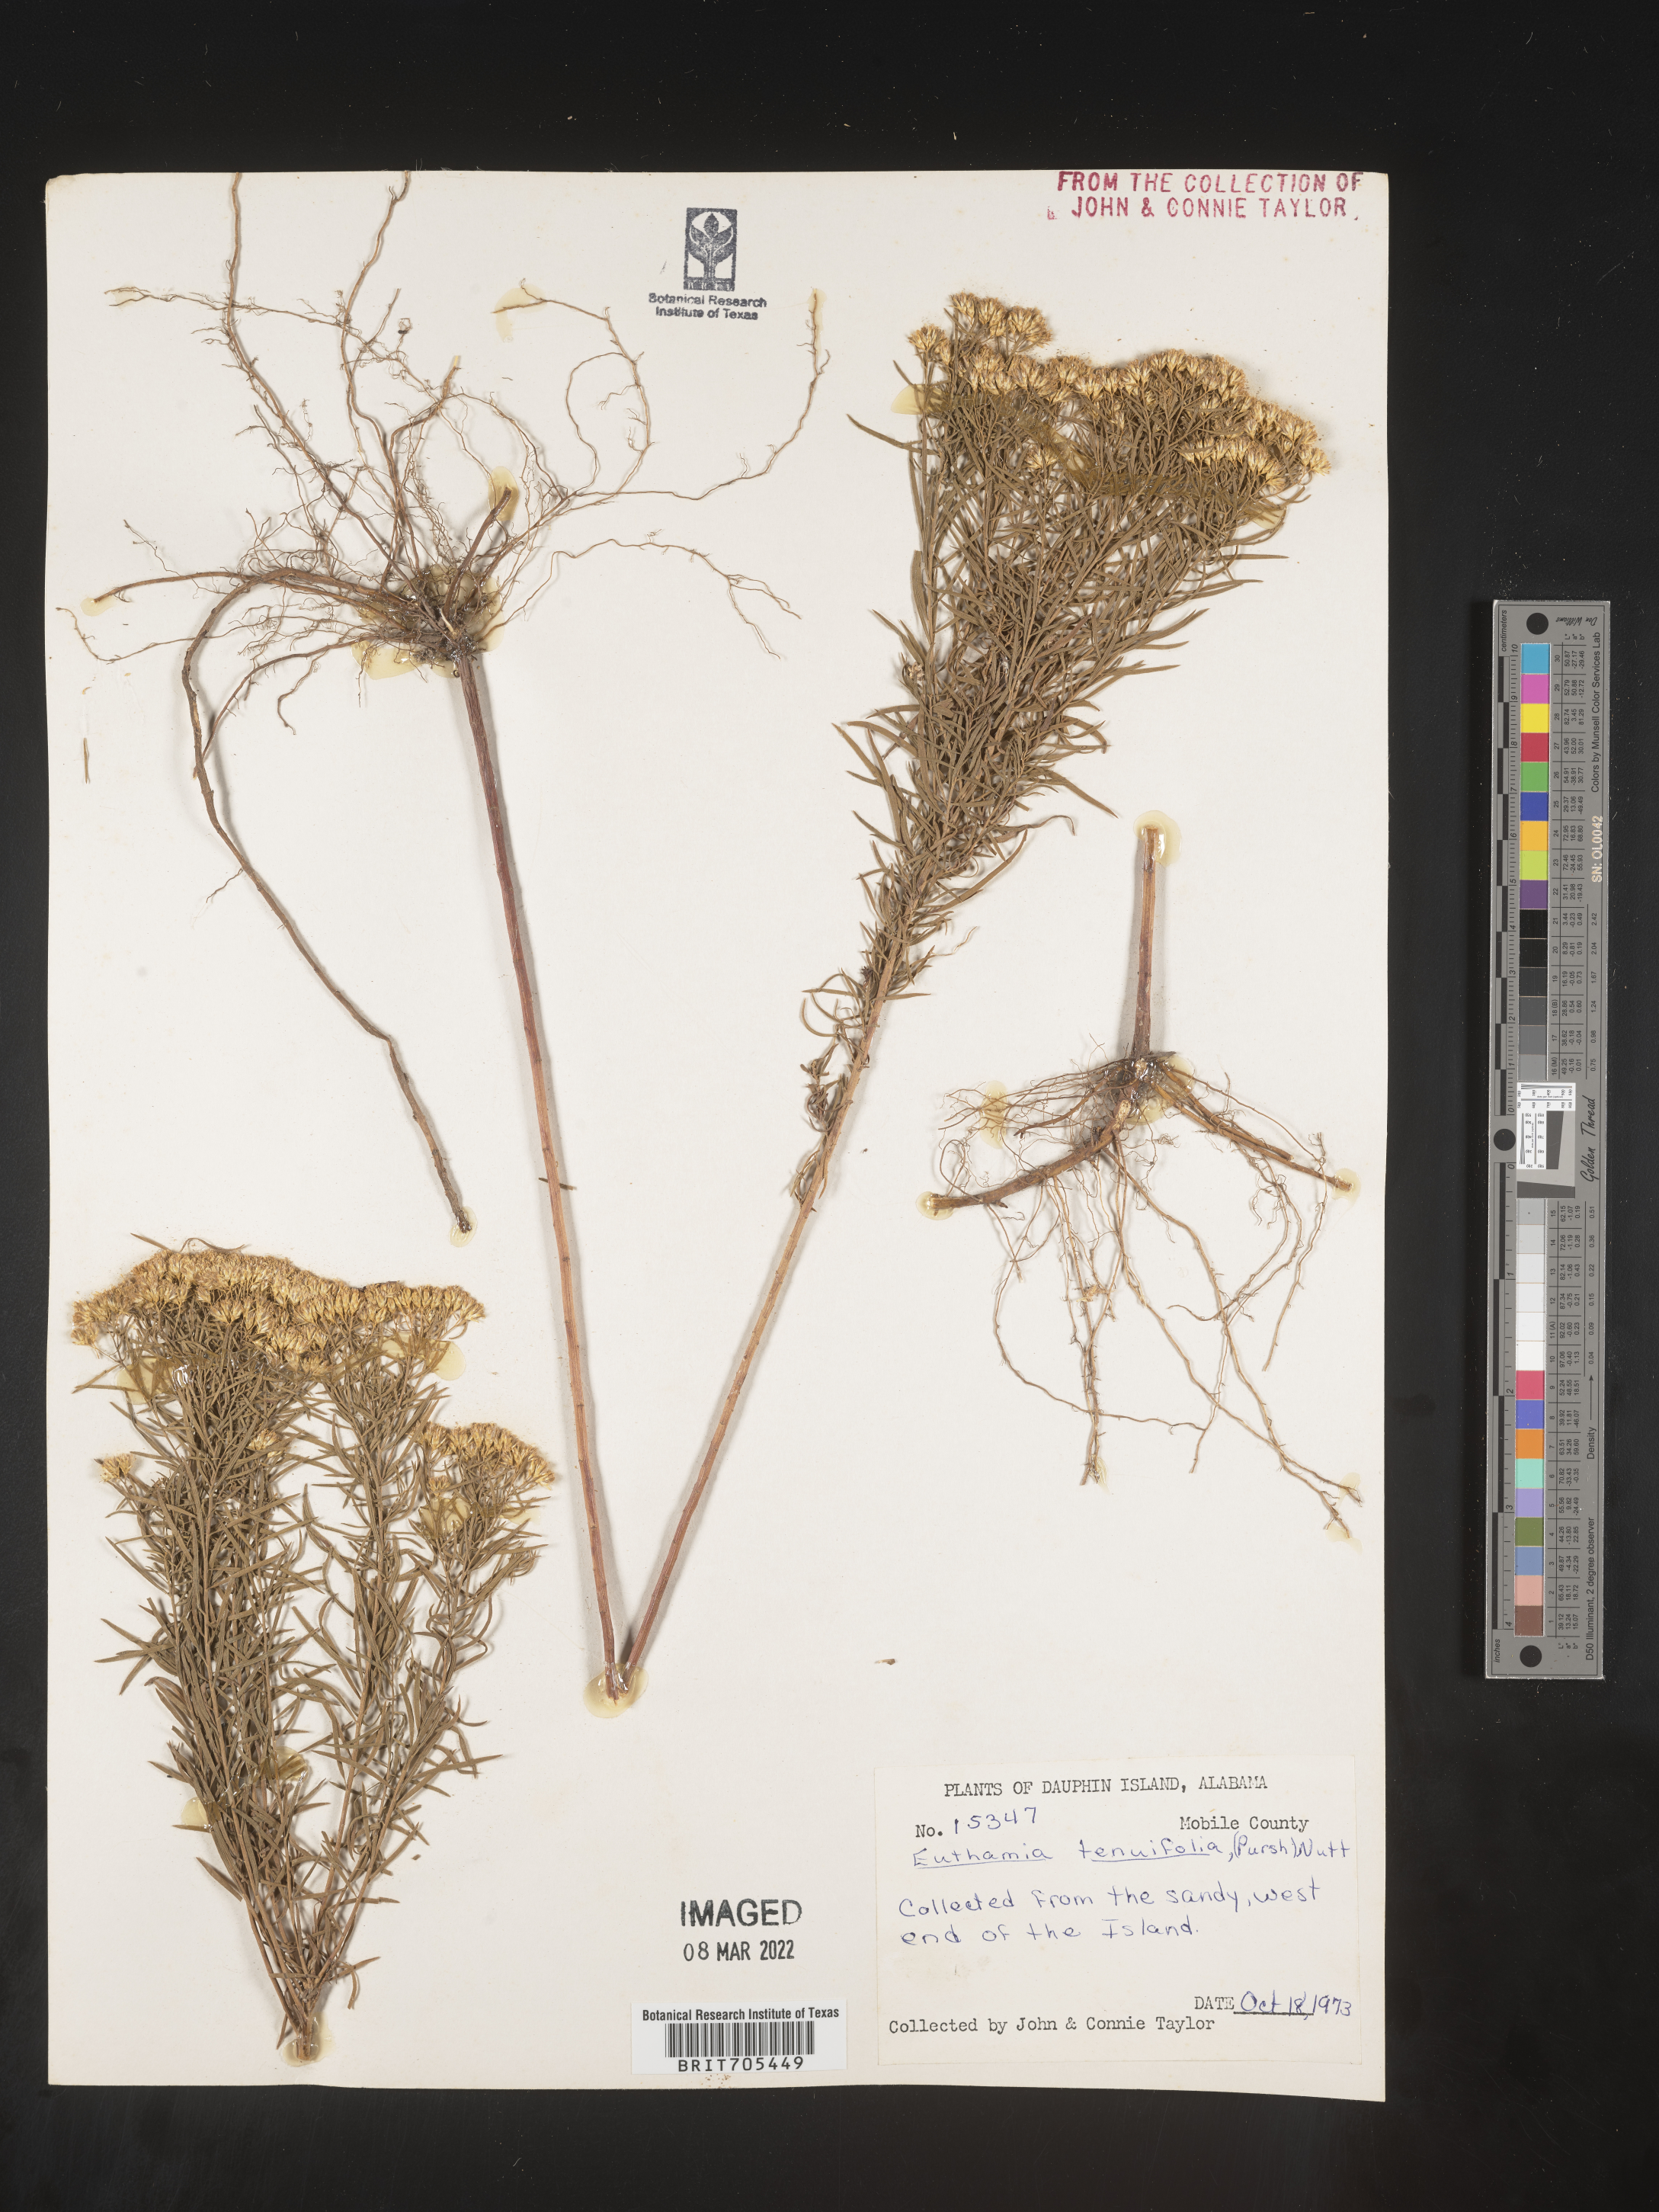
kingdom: Plantae
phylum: Tracheophyta
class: Magnoliopsida
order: Asterales
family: Asteraceae
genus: Euthamia
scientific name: Euthamia scabra
